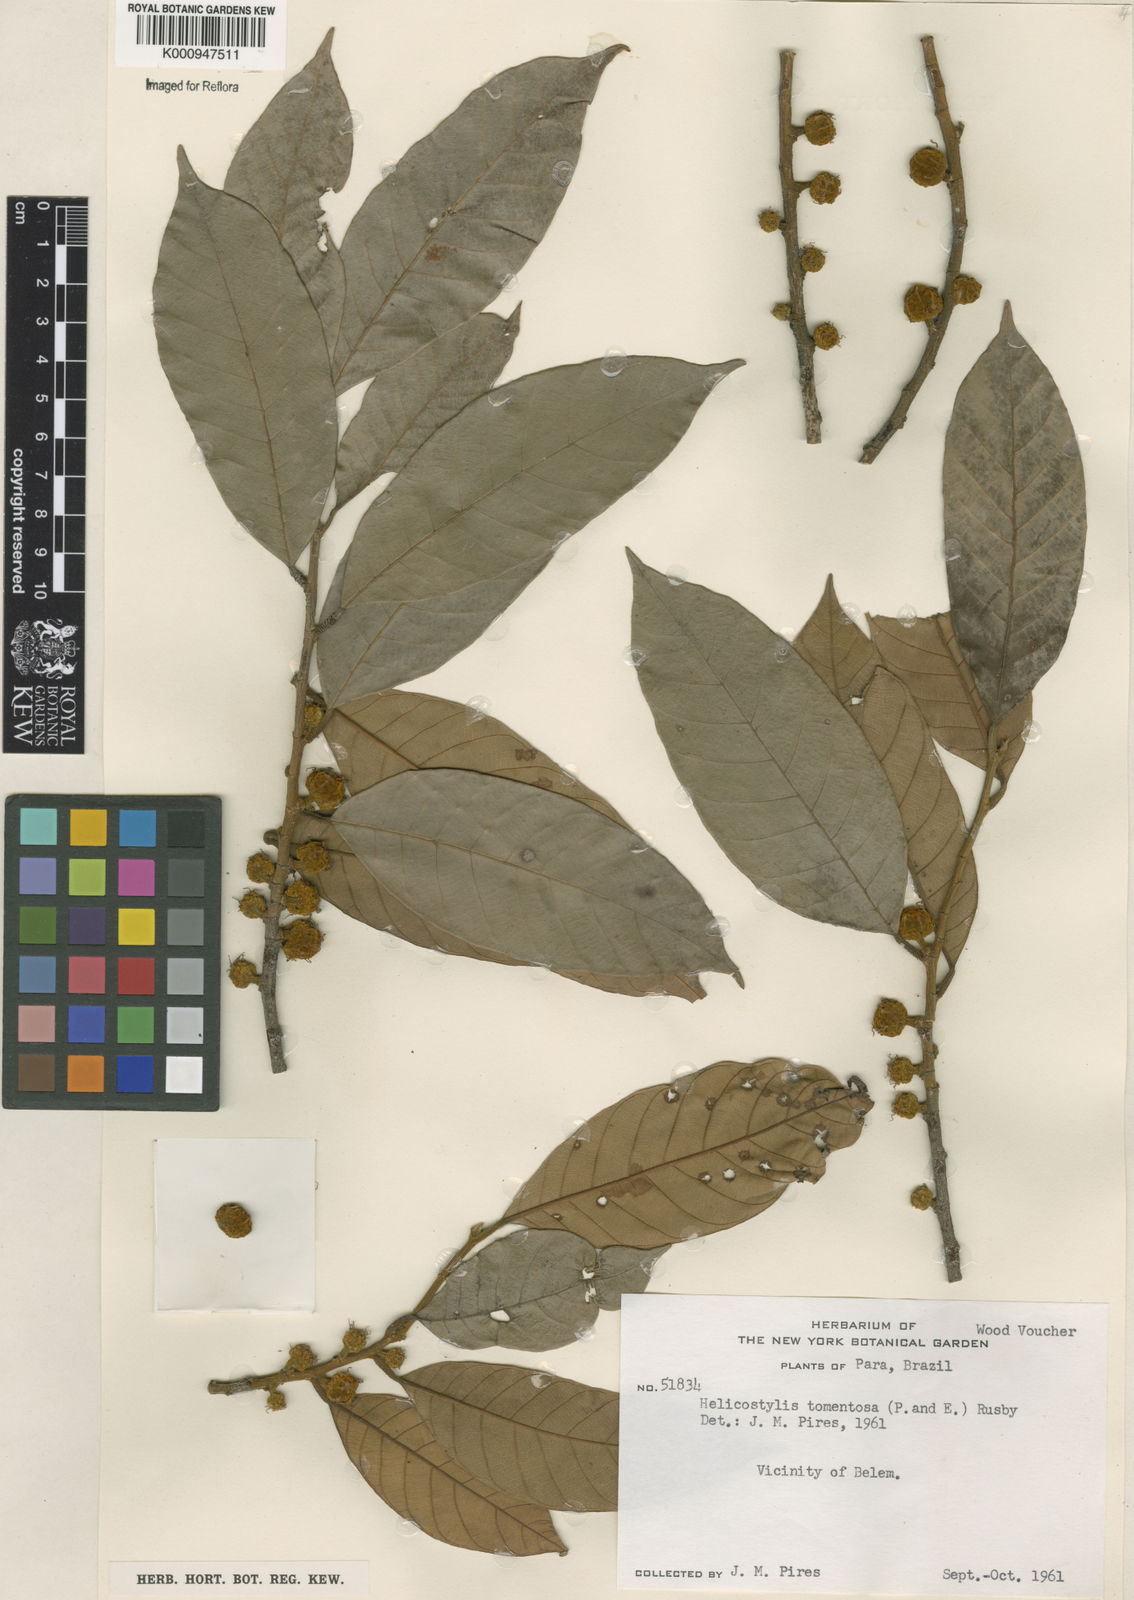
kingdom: Plantae
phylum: Tracheophyta
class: Magnoliopsida
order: Rosales
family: Moraceae
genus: Helicostylis
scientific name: Helicostylis
